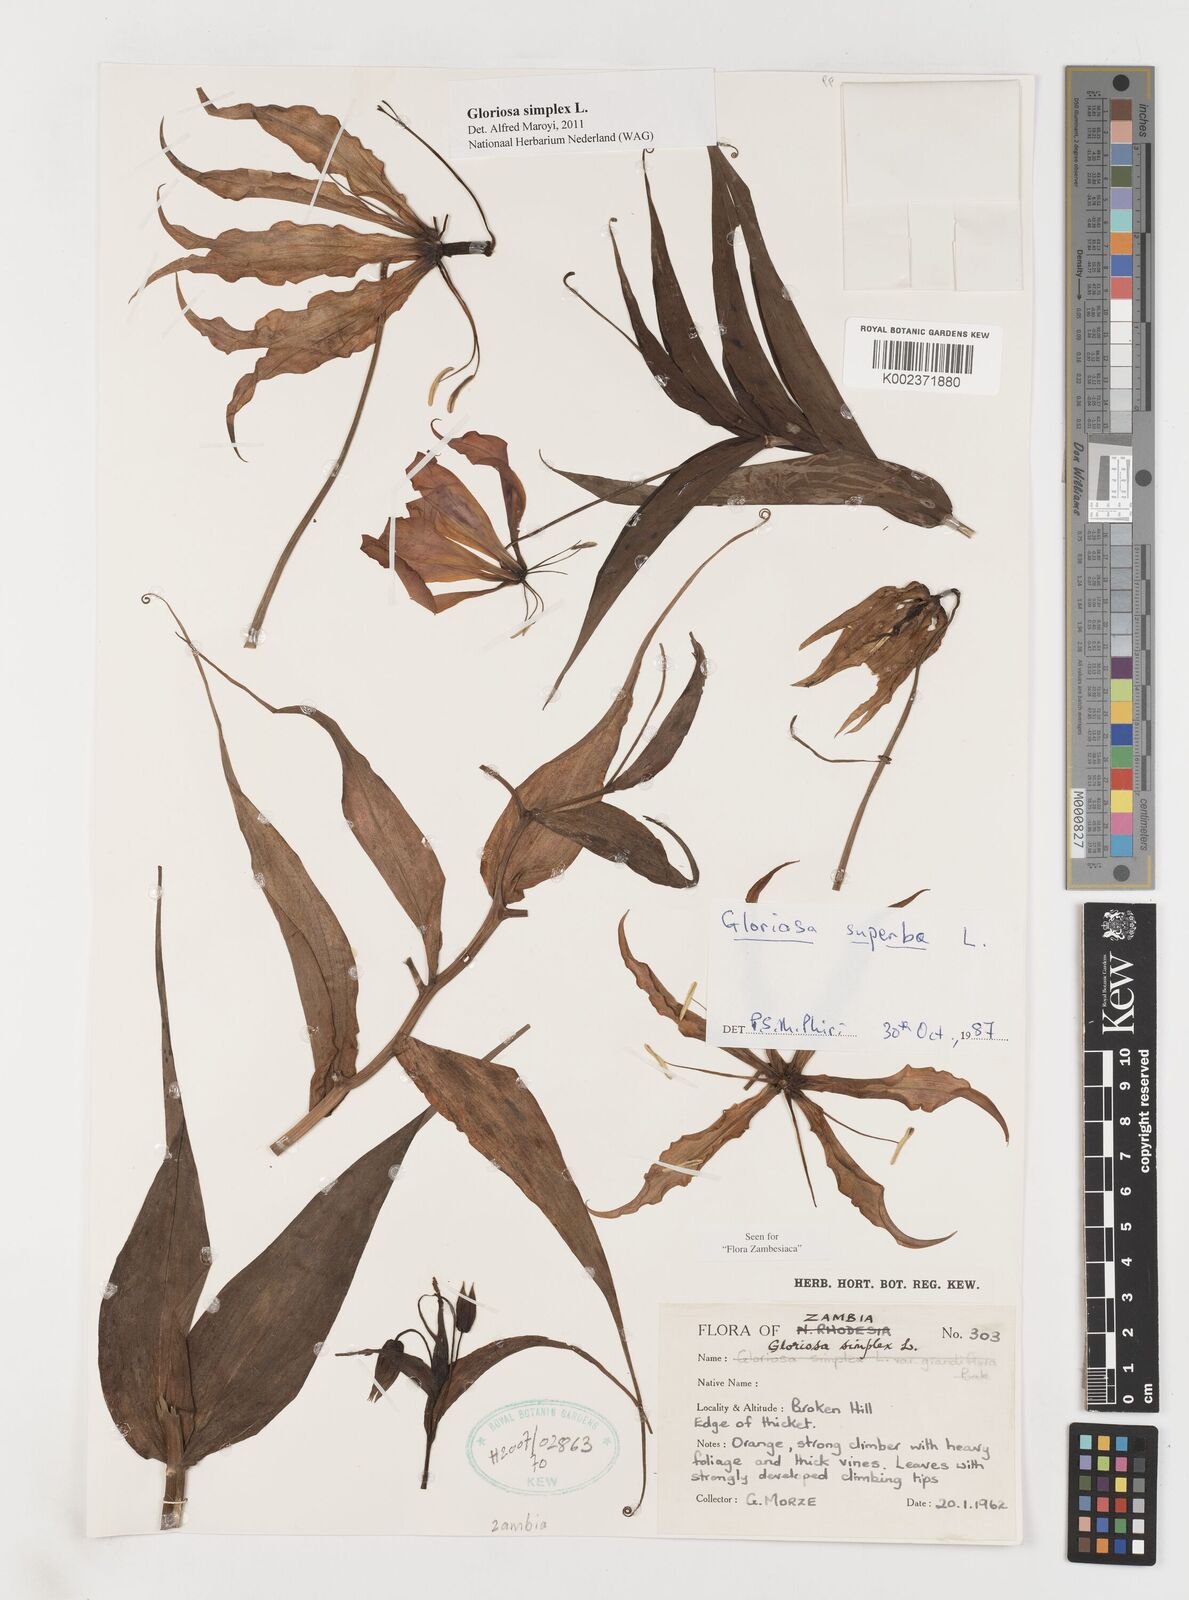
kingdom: Plantae
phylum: Tracheophyta
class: Liliopsida
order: Liliales
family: Colchicaceae
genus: Gloriosa
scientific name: Gloriosa simplex
